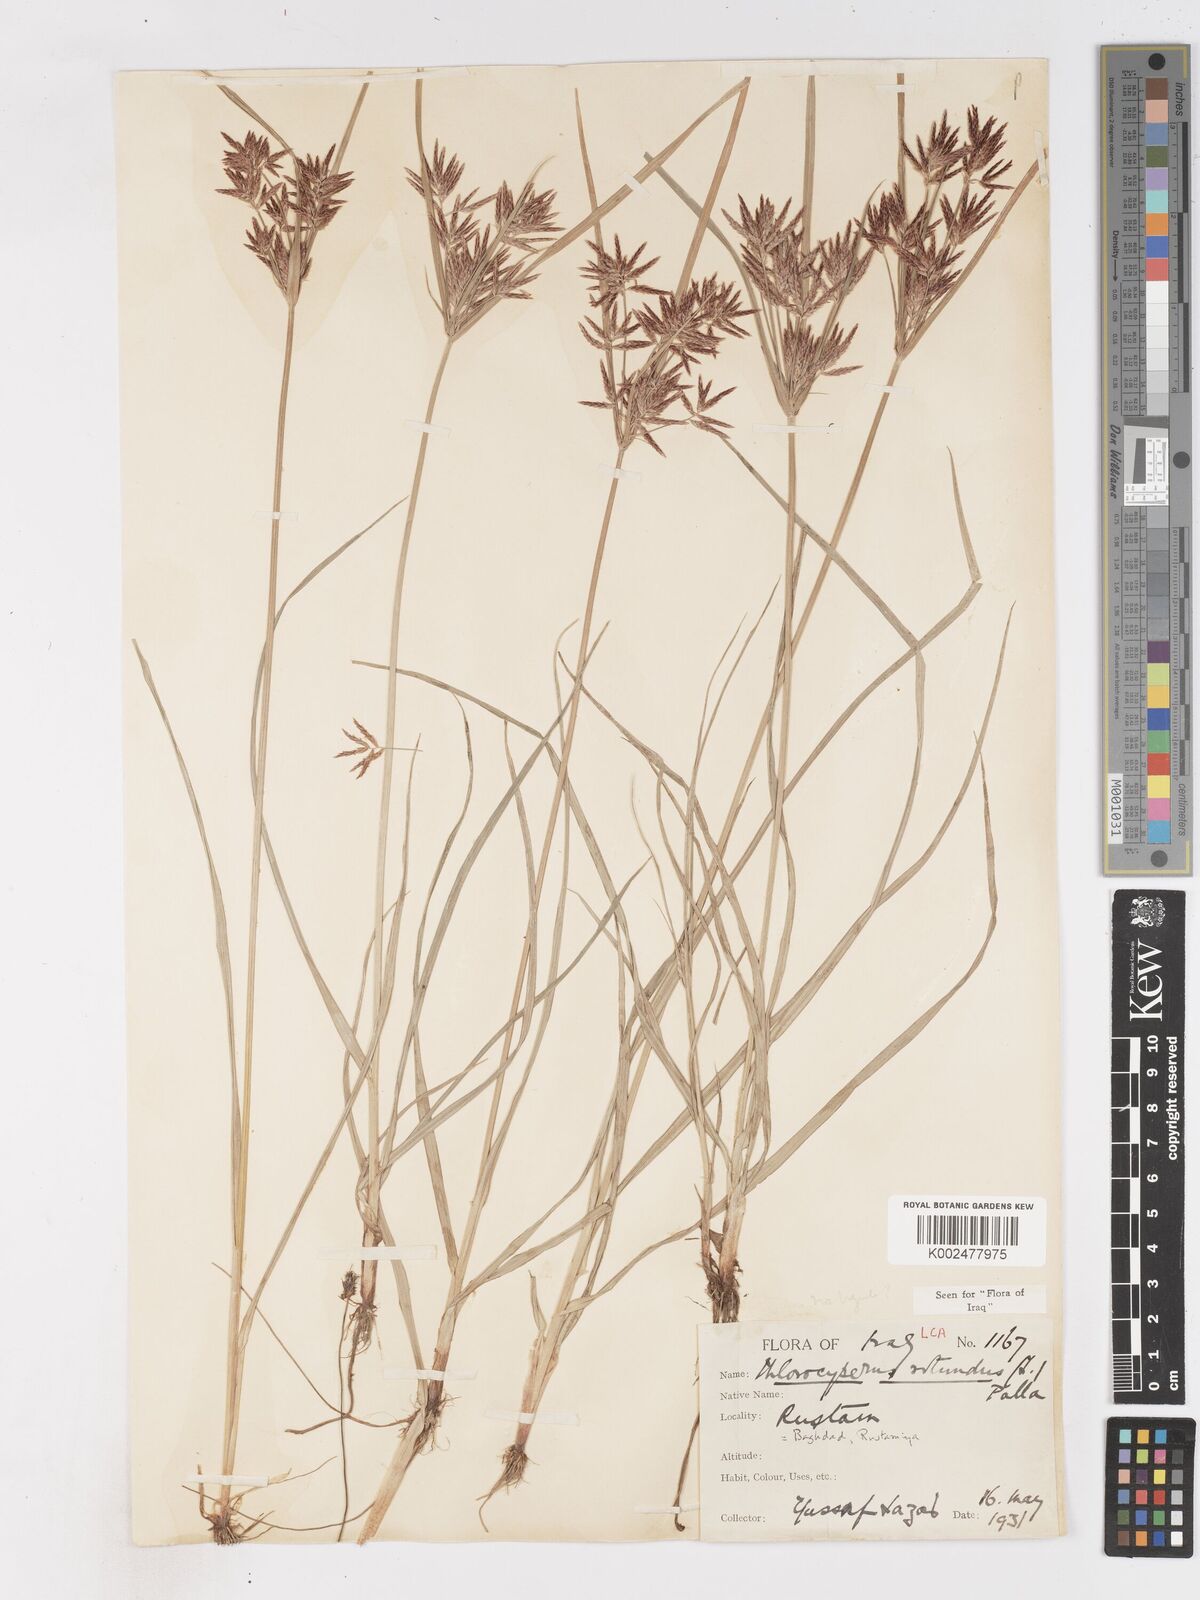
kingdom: Plantae
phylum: Tracheophyta
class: Liliopsida
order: Poales
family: Cyperaceae
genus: Cyperus
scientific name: Cyperus rotundus
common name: Nutgrass
